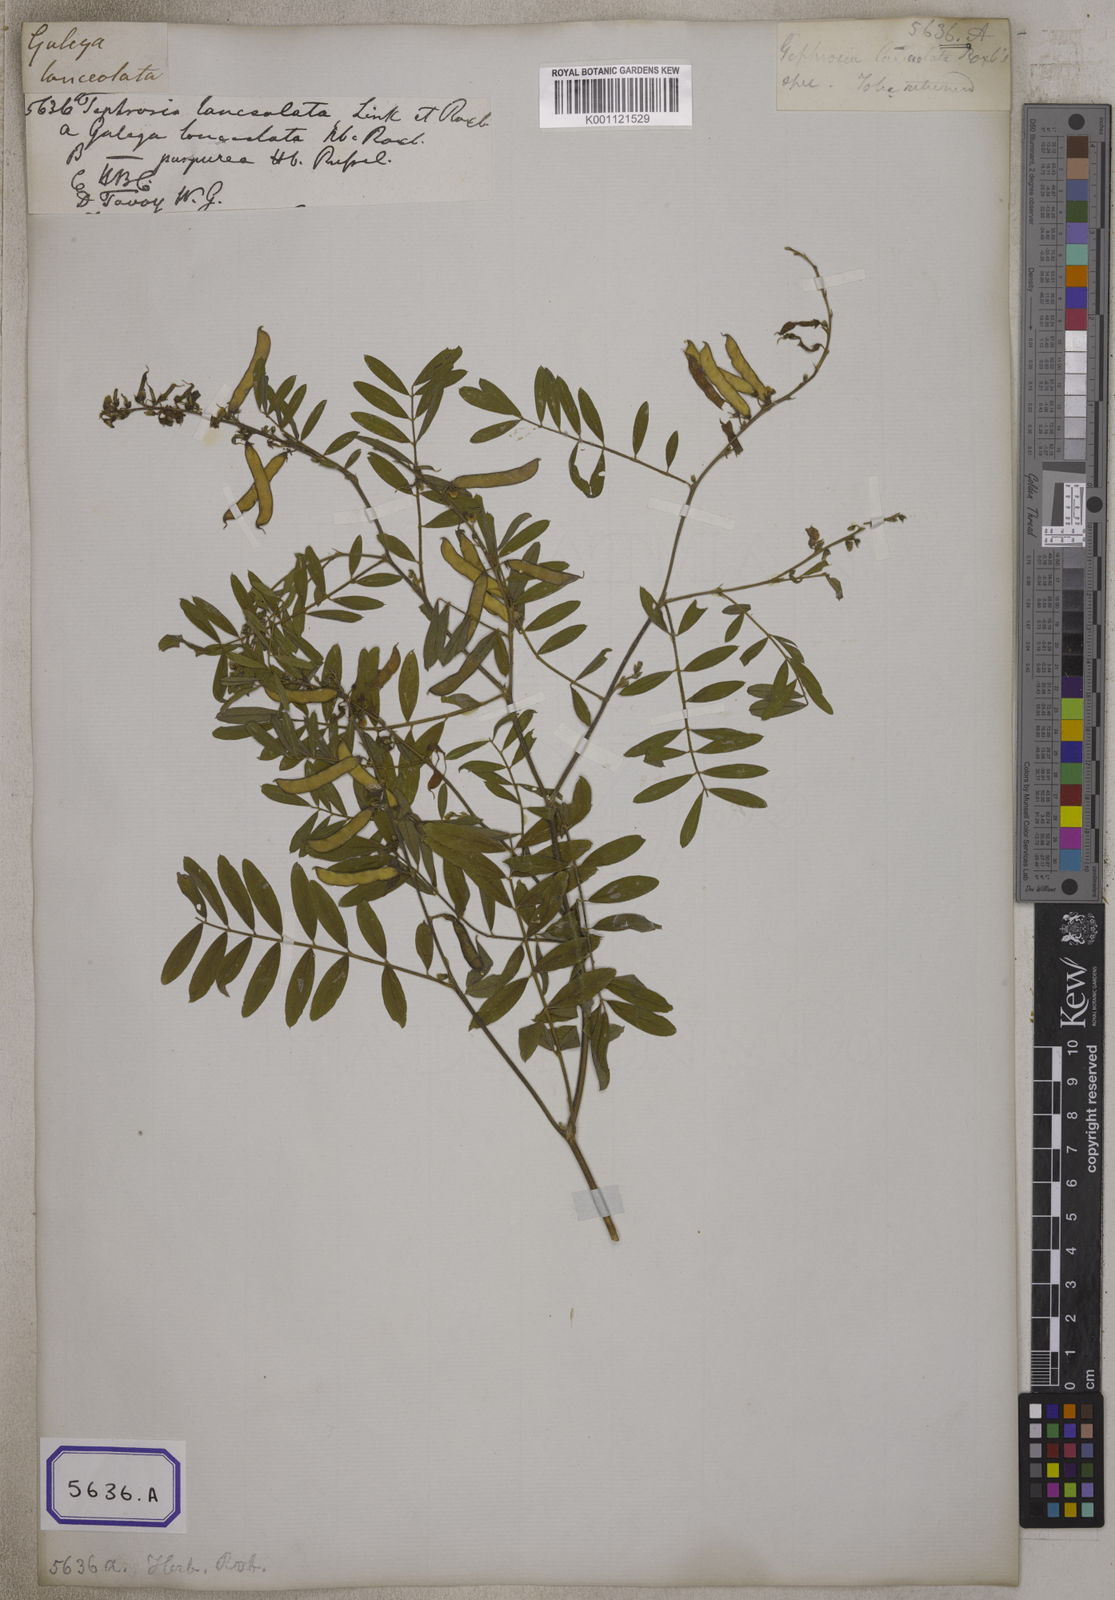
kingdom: Plantae
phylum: Tracheophyta
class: Magnoliopsida
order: Fabales
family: Fabaceae
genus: Tephrosia
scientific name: Tephrosia
